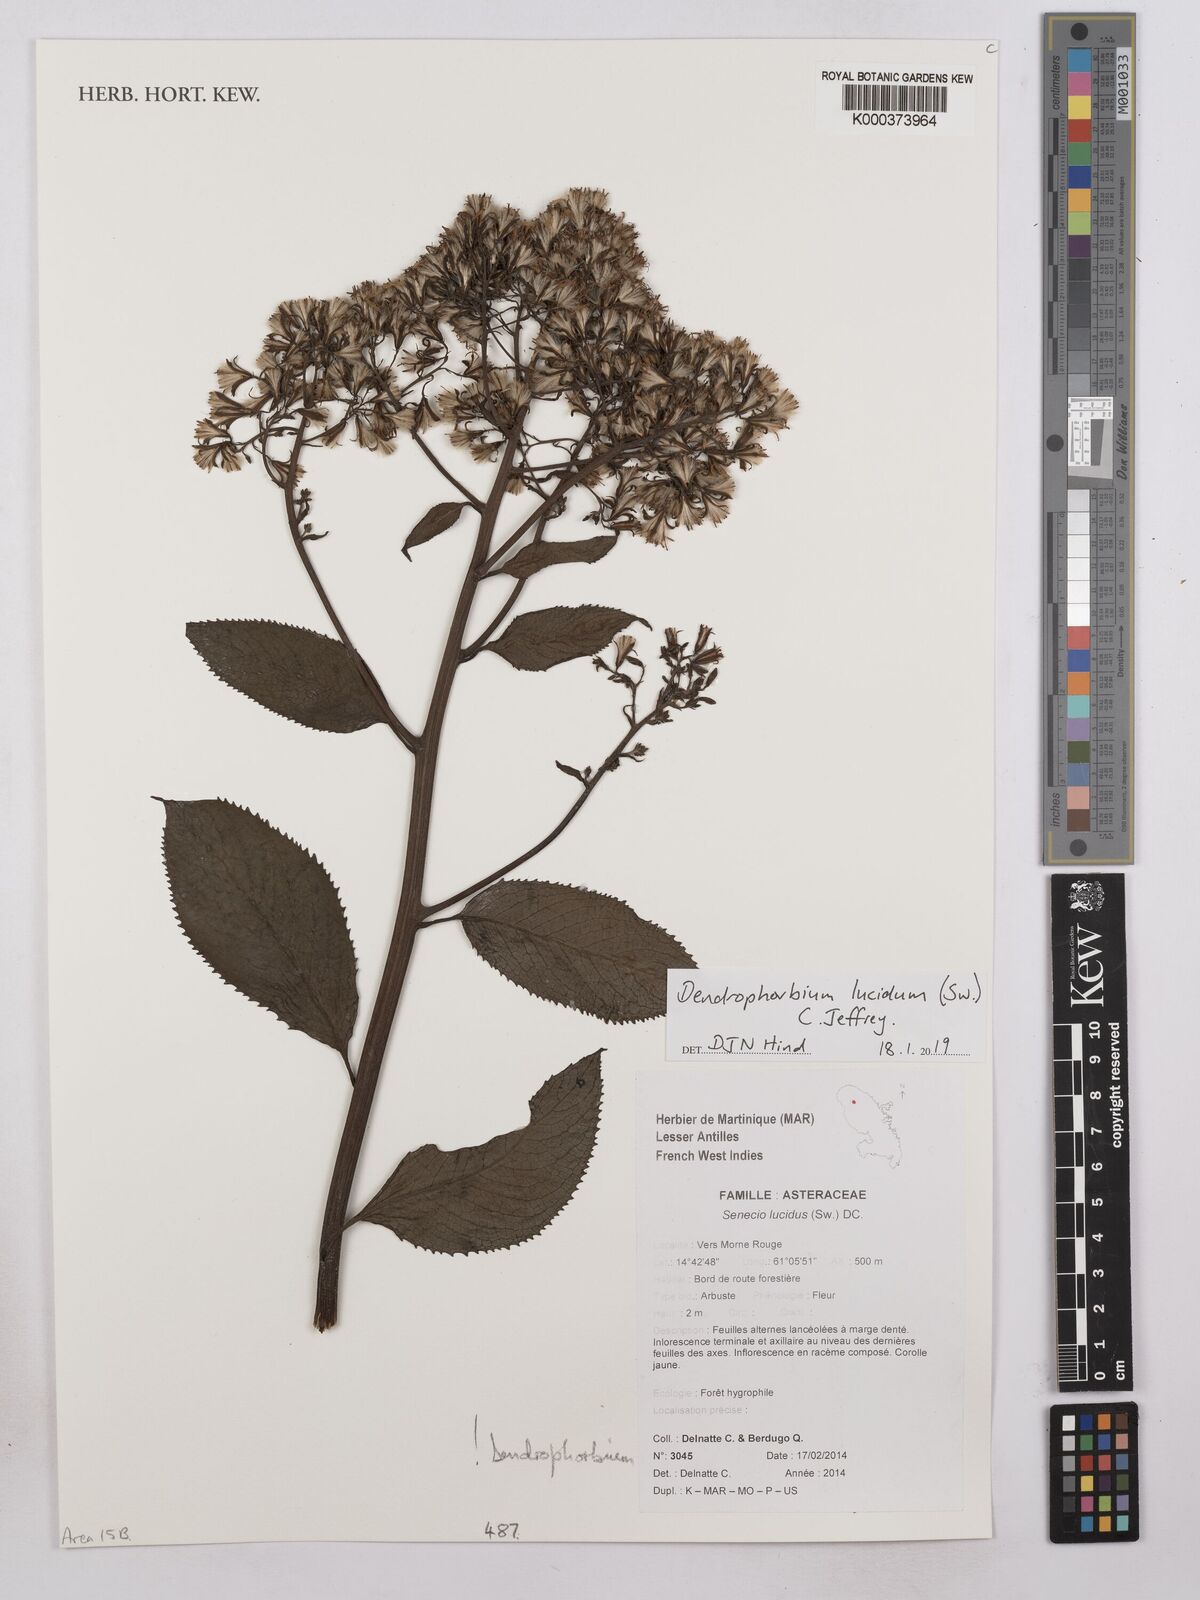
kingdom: Plantae
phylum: Tracheophyta
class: Magnoliopsida
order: Asterales
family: Asteraceae
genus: Dendrophorbium
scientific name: Dendrophorbium lucidum
